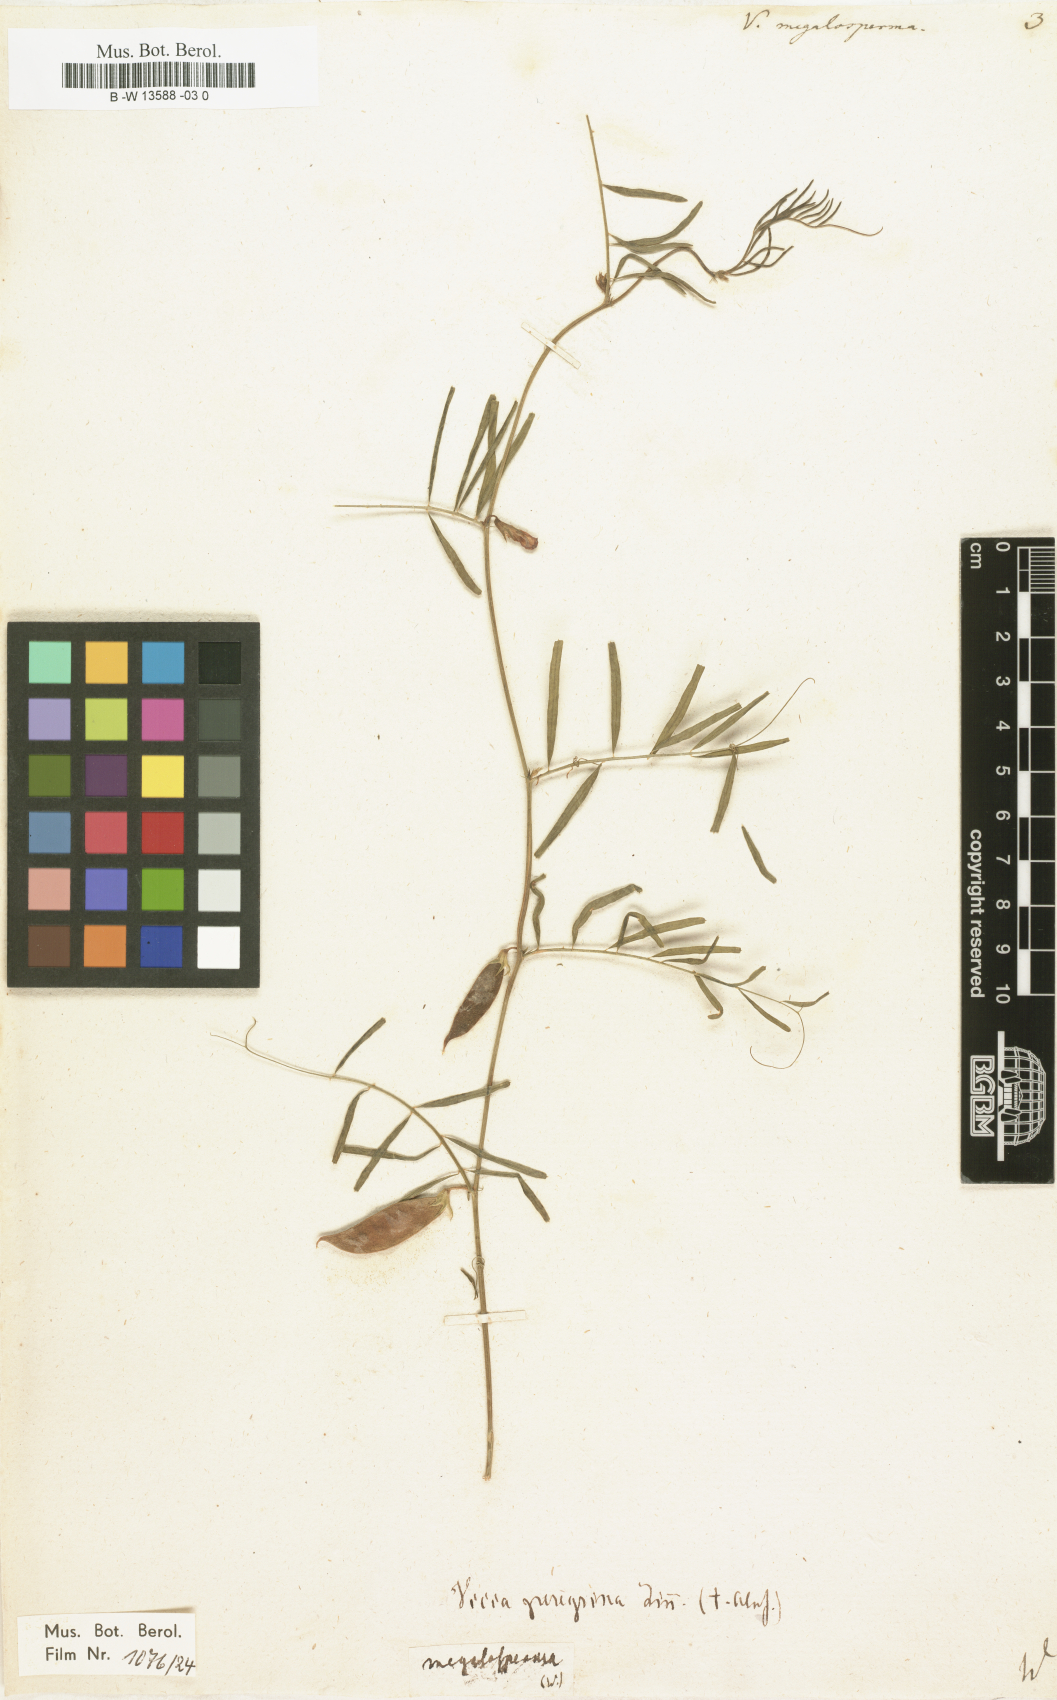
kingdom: Plantae
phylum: Tracheophyta
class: Magnoliopsida
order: Fabales
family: Fabaceae
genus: Vicia
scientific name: Vicia peregrina
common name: Broad-pod vetch
